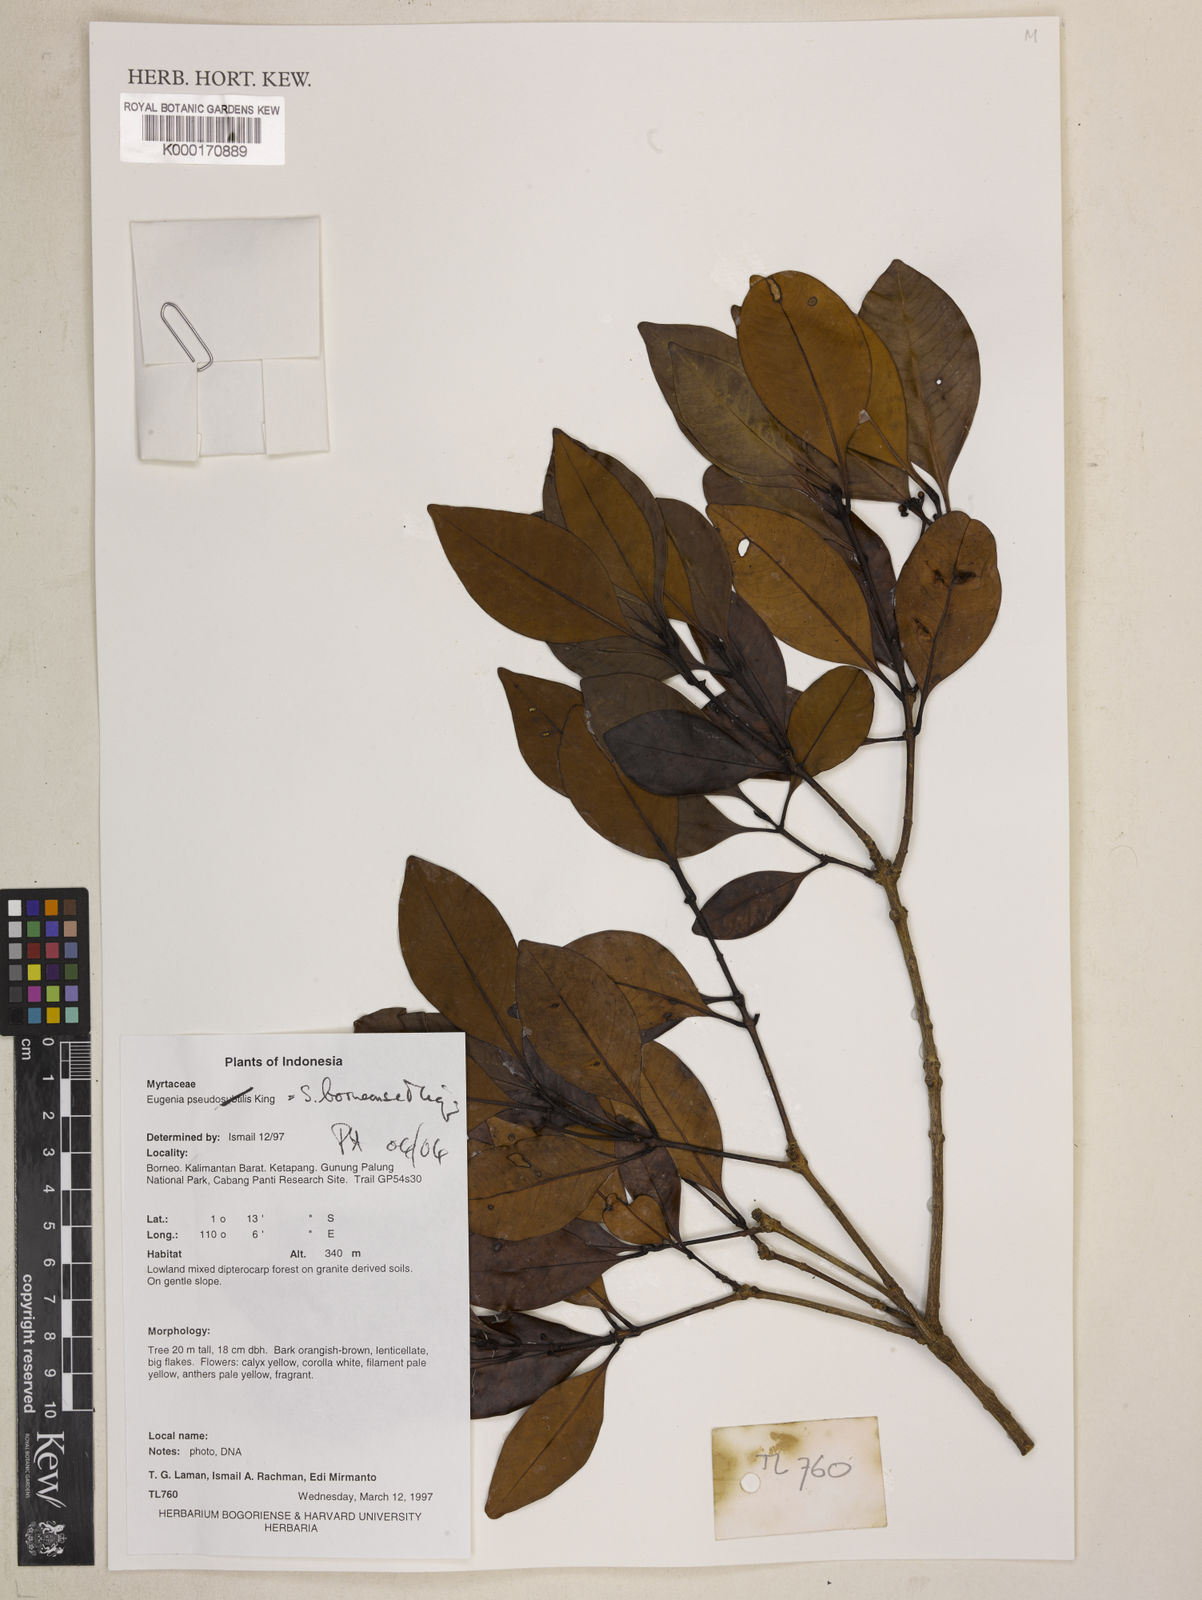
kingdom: Plantae
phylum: Tracheophyta
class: Magnoliopsida
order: Myrtales
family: Myrtaceae
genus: Syzygium
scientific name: Syzygium borneense
